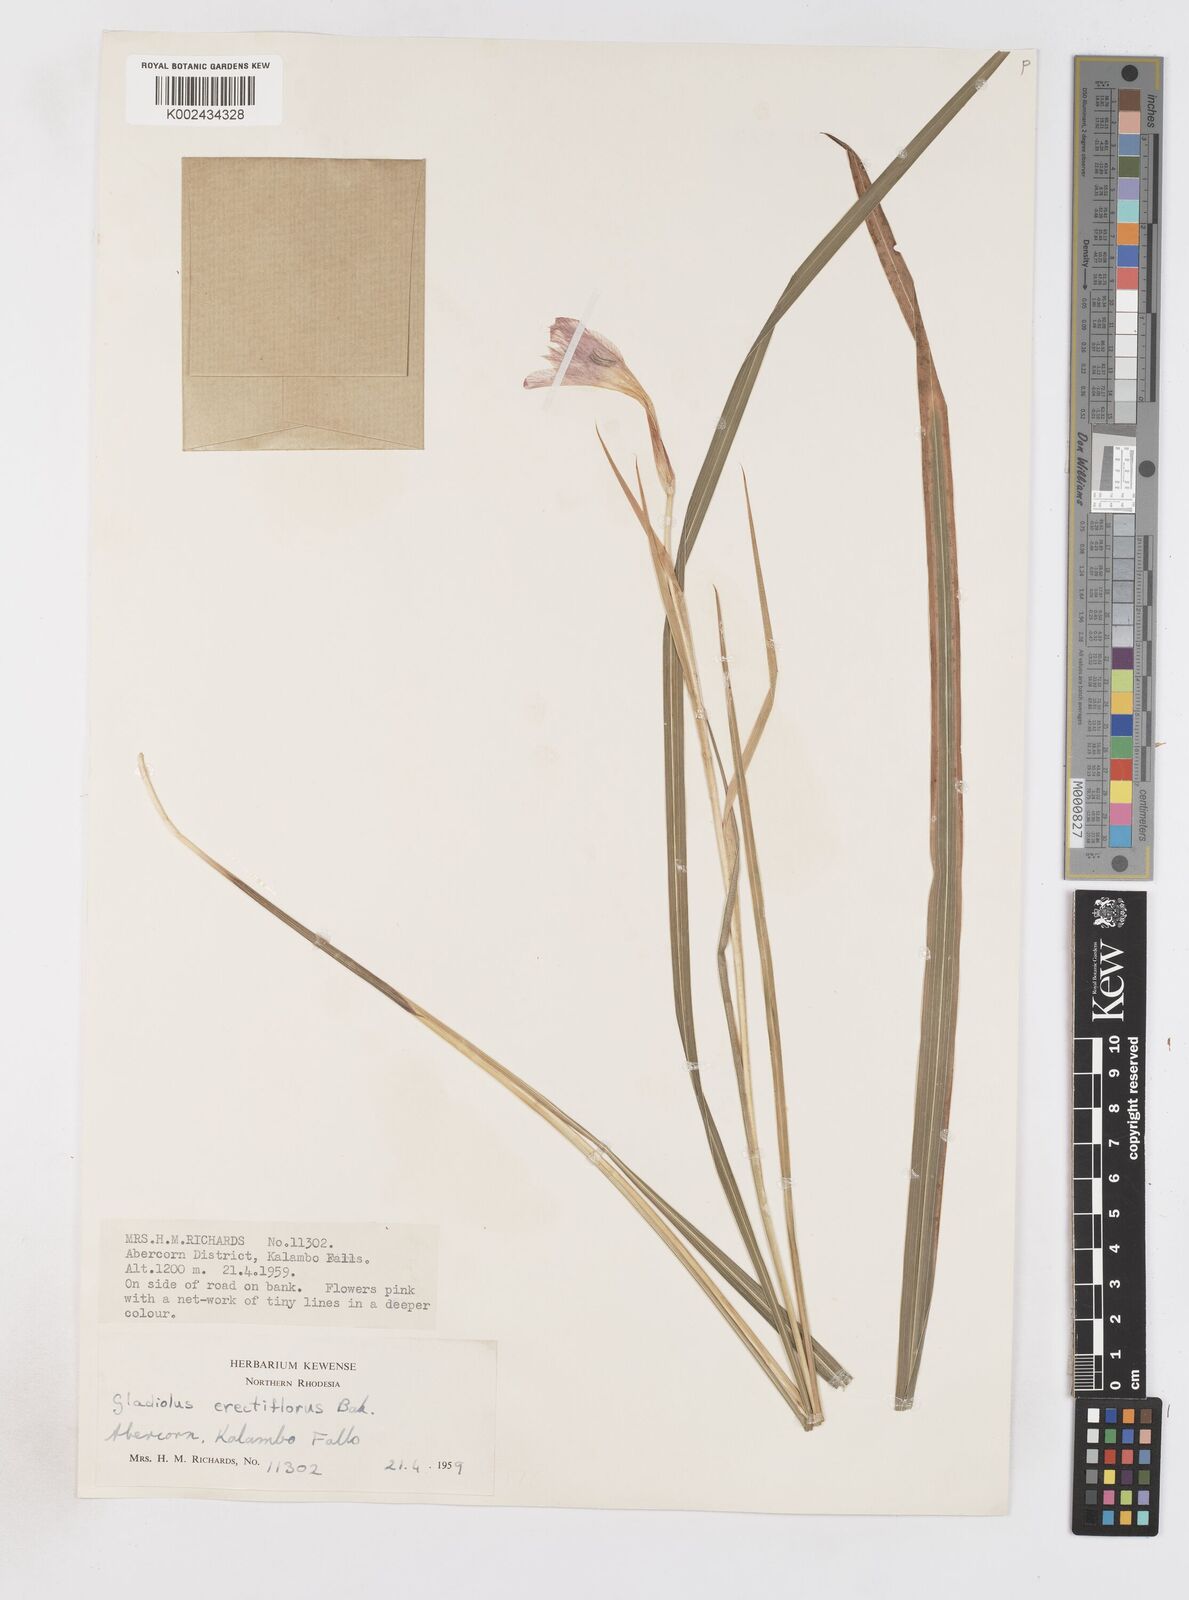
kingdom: Plantae
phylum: Tracheophyta
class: Liliopsida
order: Asparagales
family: Iridaceae
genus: Gladiolus
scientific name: Gladiolus erectiflorus
